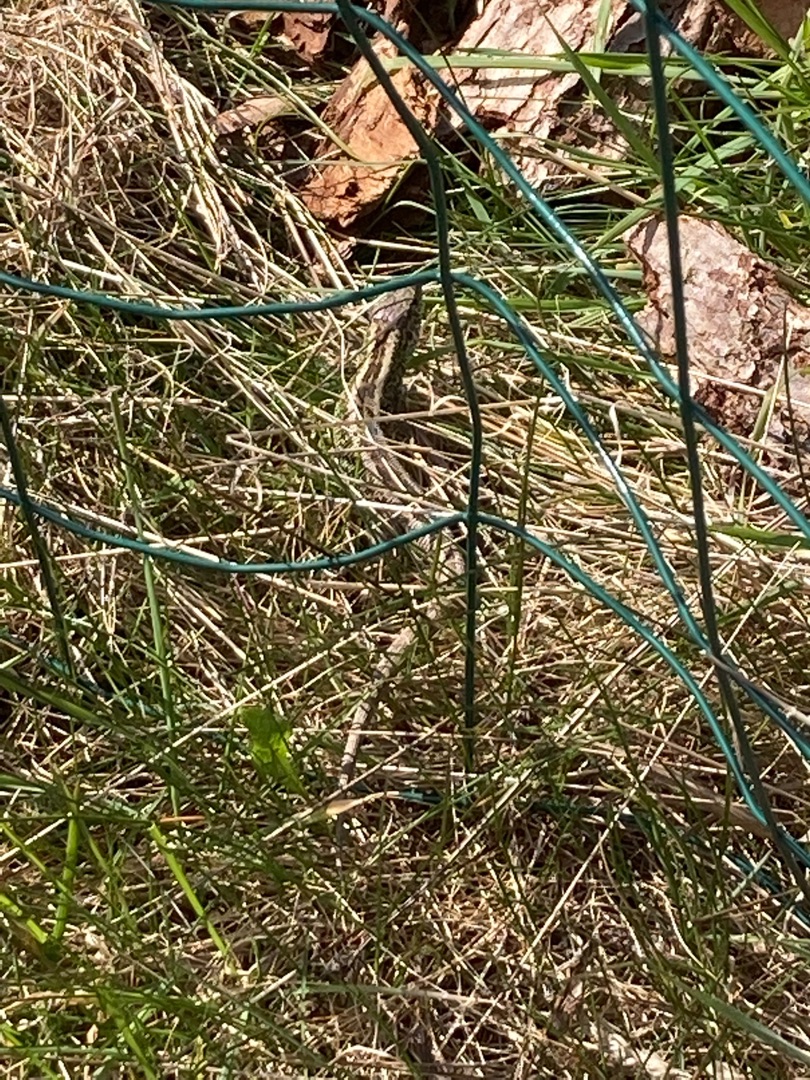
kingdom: Animalia
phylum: Chordata
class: Squamata
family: Lacertidae
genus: Lacerta
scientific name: Lacerta agilis
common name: Markfirben
